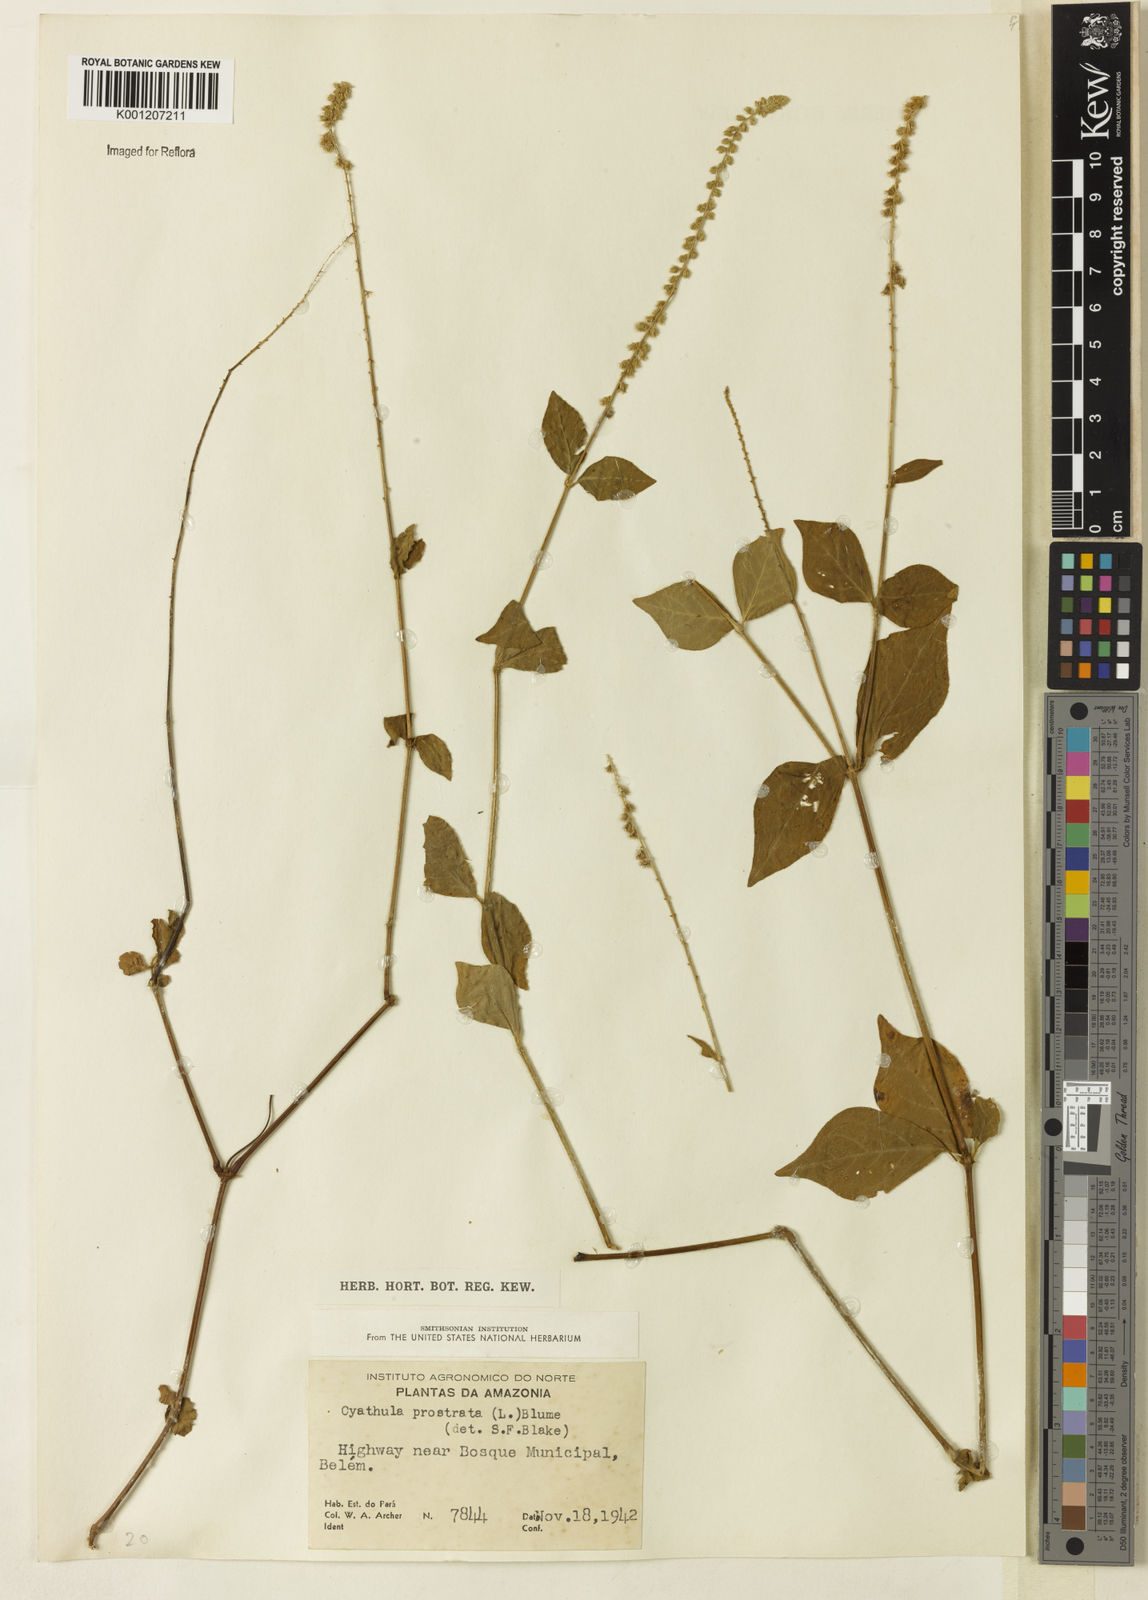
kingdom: Plantae
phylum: Tracheophyta
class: Magnoliopsida
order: Caryophyllales
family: Amaranthaceae
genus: Cyathula
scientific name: Cyathula prostrata
